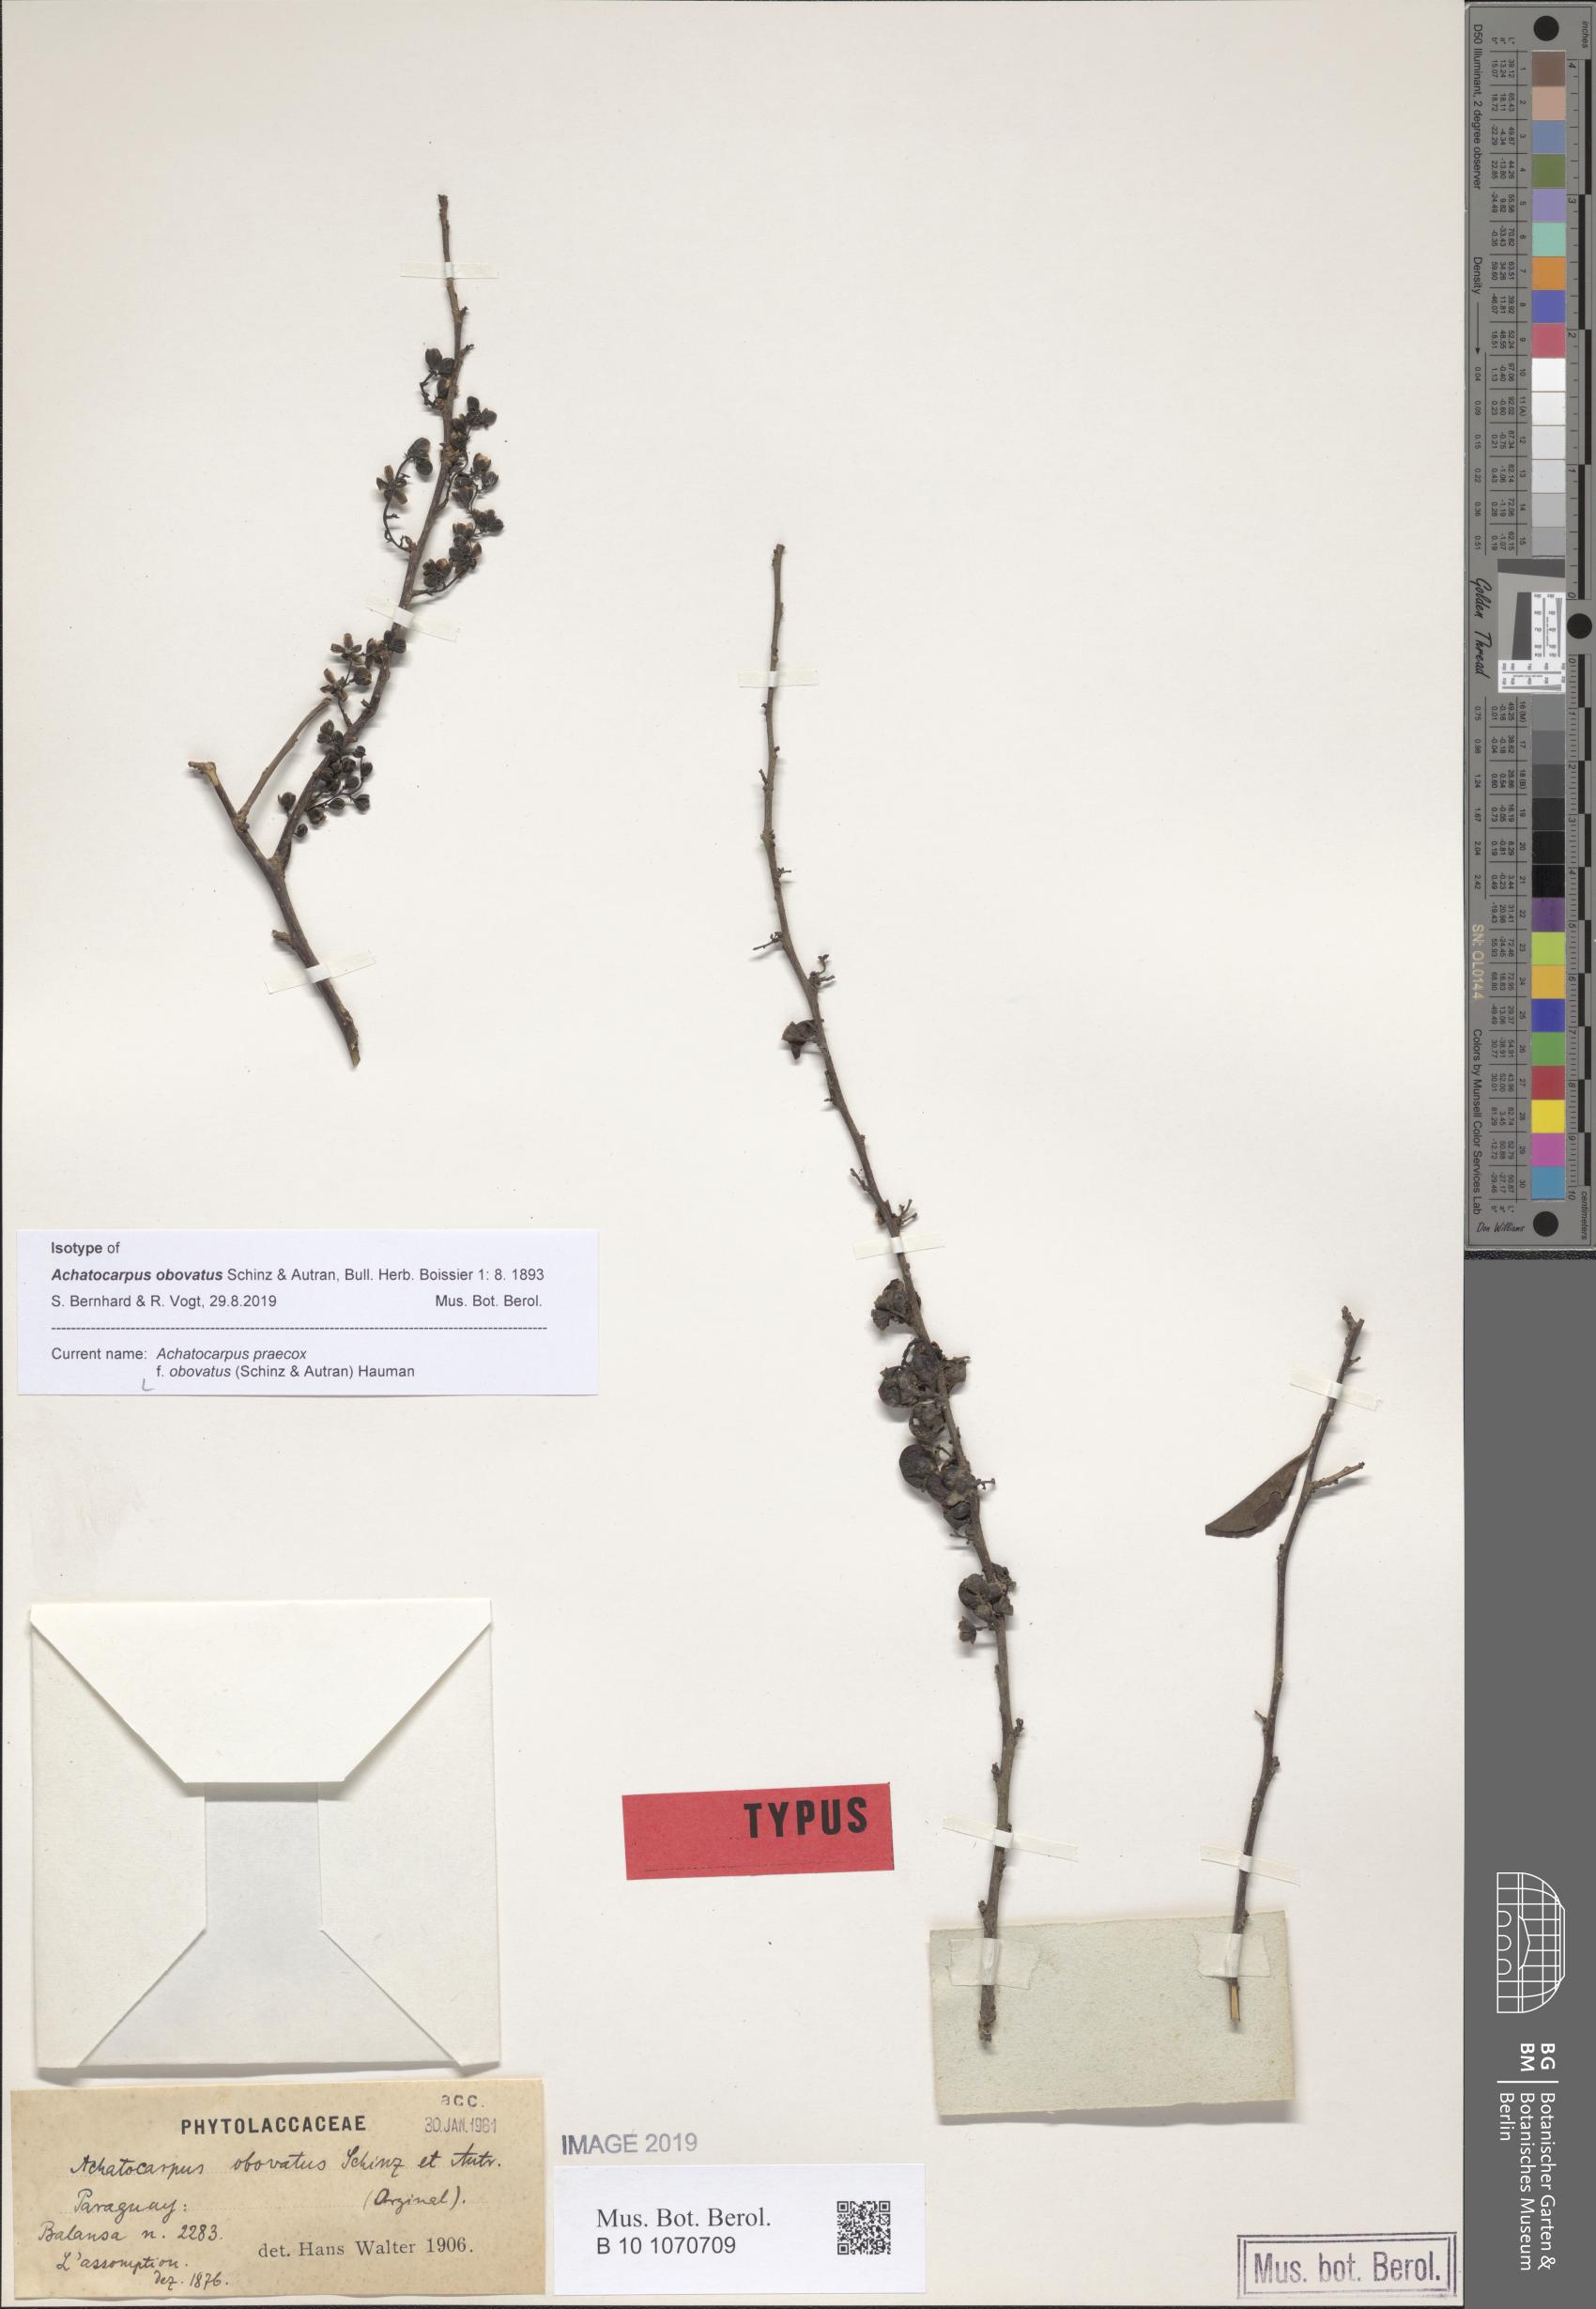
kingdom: Plantae
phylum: Tracheophyta
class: Magnoliopsida
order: Caryophyllales
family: Achatocarpaceae
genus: Achatocarpus
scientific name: Achatocarpus praecox
